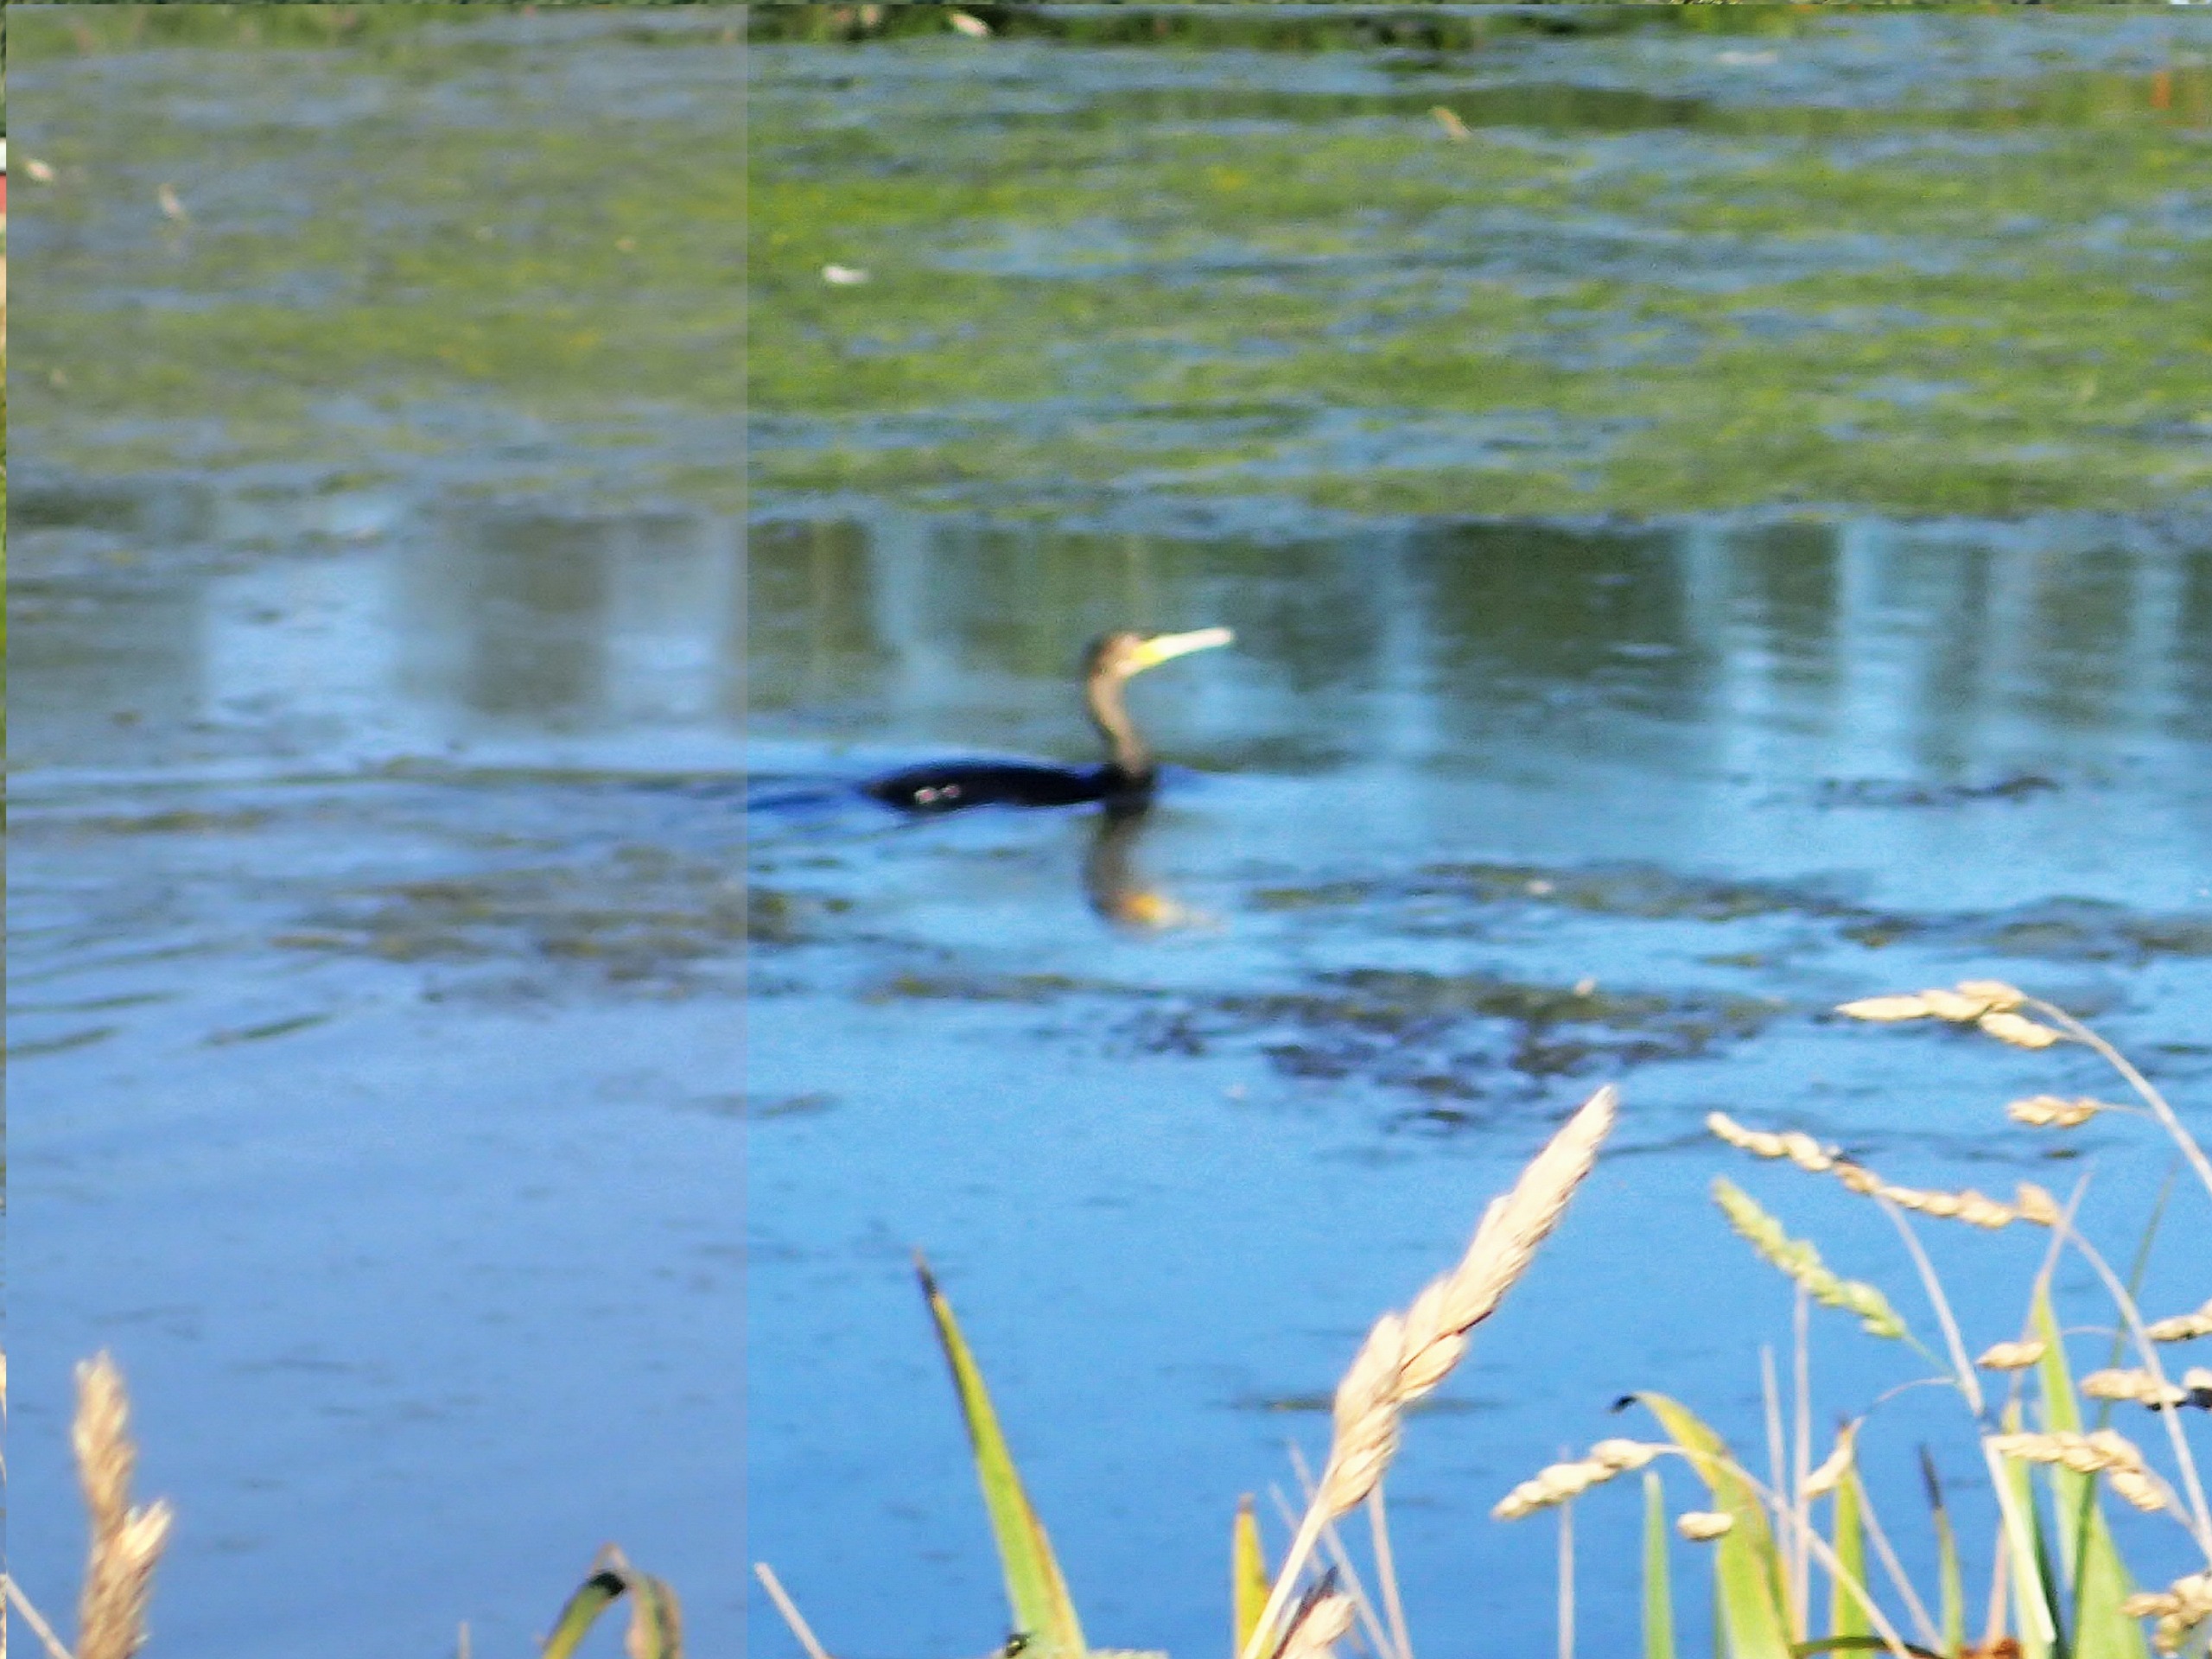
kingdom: Animalia
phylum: Chordata
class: Aves
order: Suliformes
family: Phalacrocoracidae
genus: Phalacrocorax
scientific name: Phalacrocorax carbo
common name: Skarv
